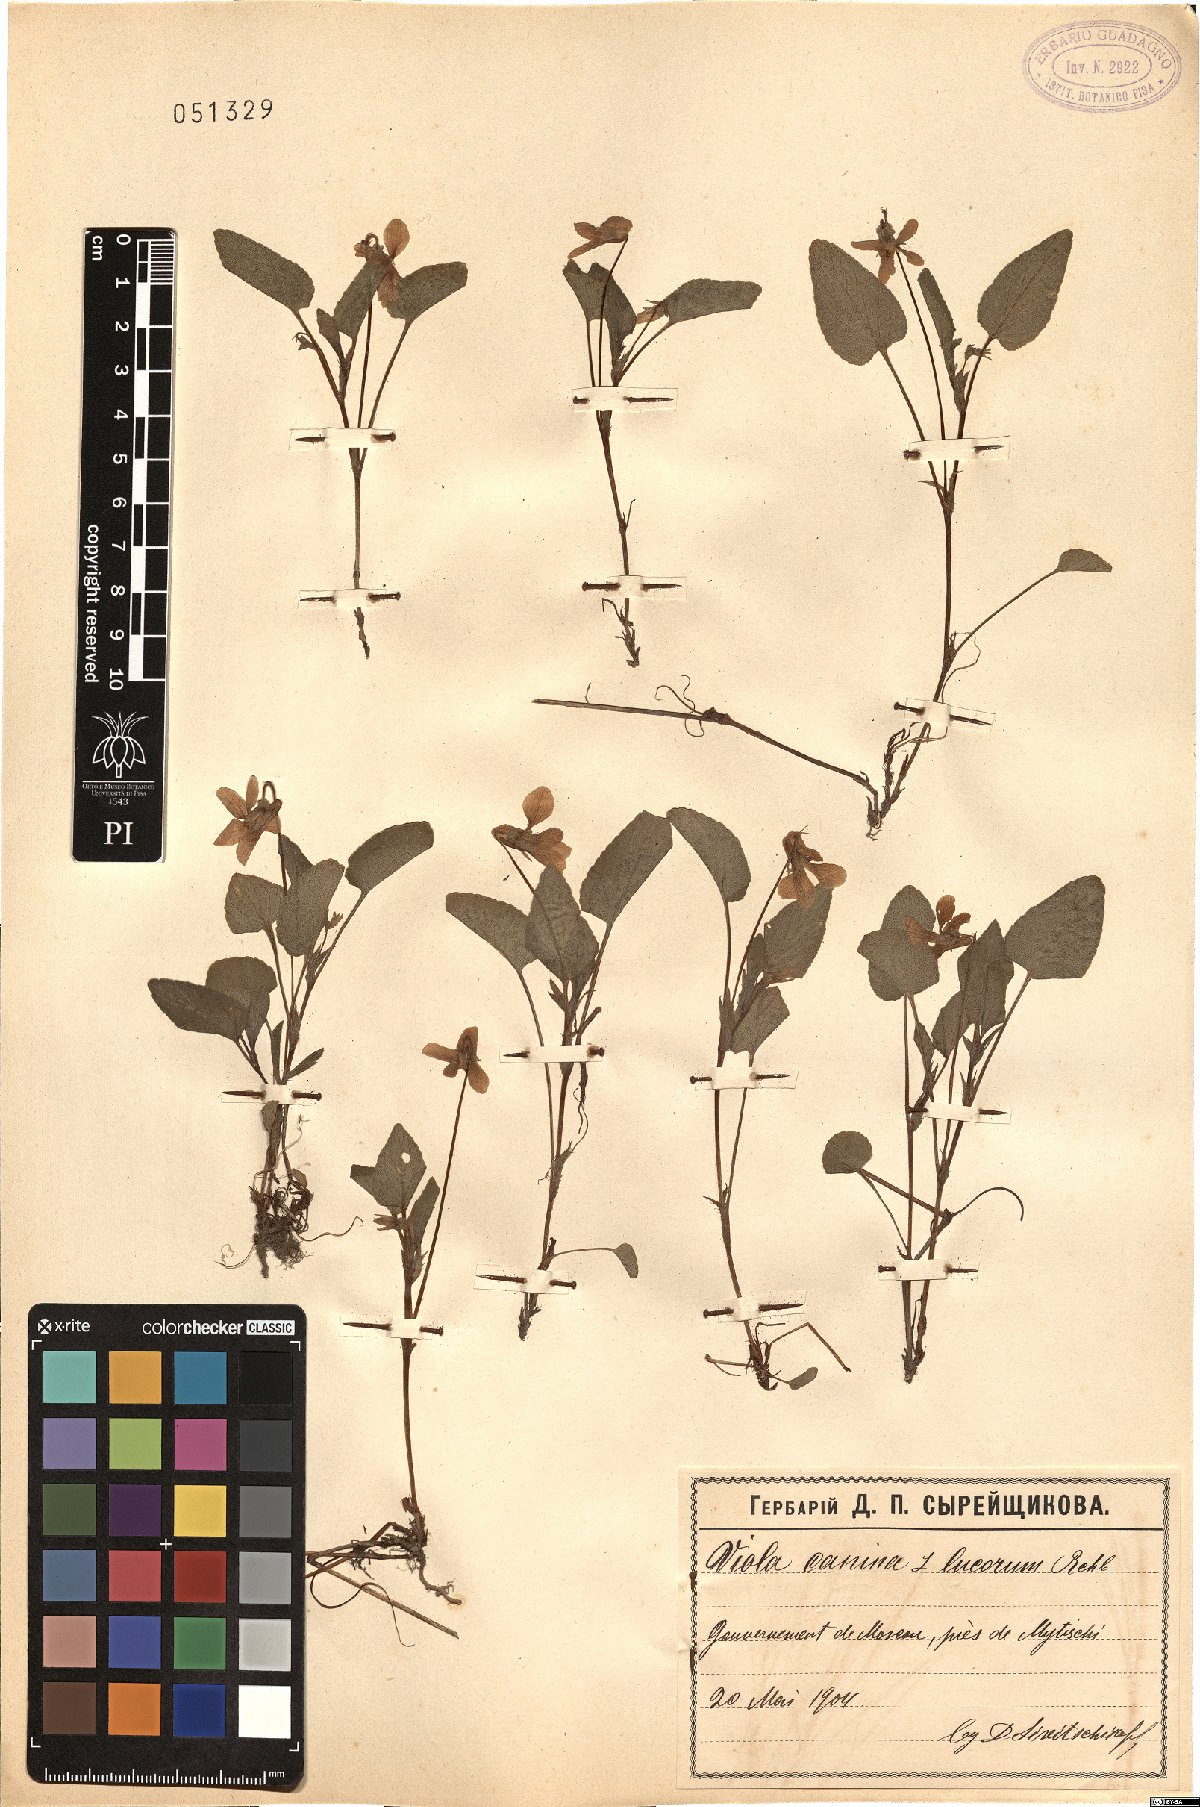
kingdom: Plantae
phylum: Tracheophyta
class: Magnoliopsida
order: Malpighiales
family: Violaceae
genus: Viola
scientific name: Viola canina
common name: Heath dog-violet
